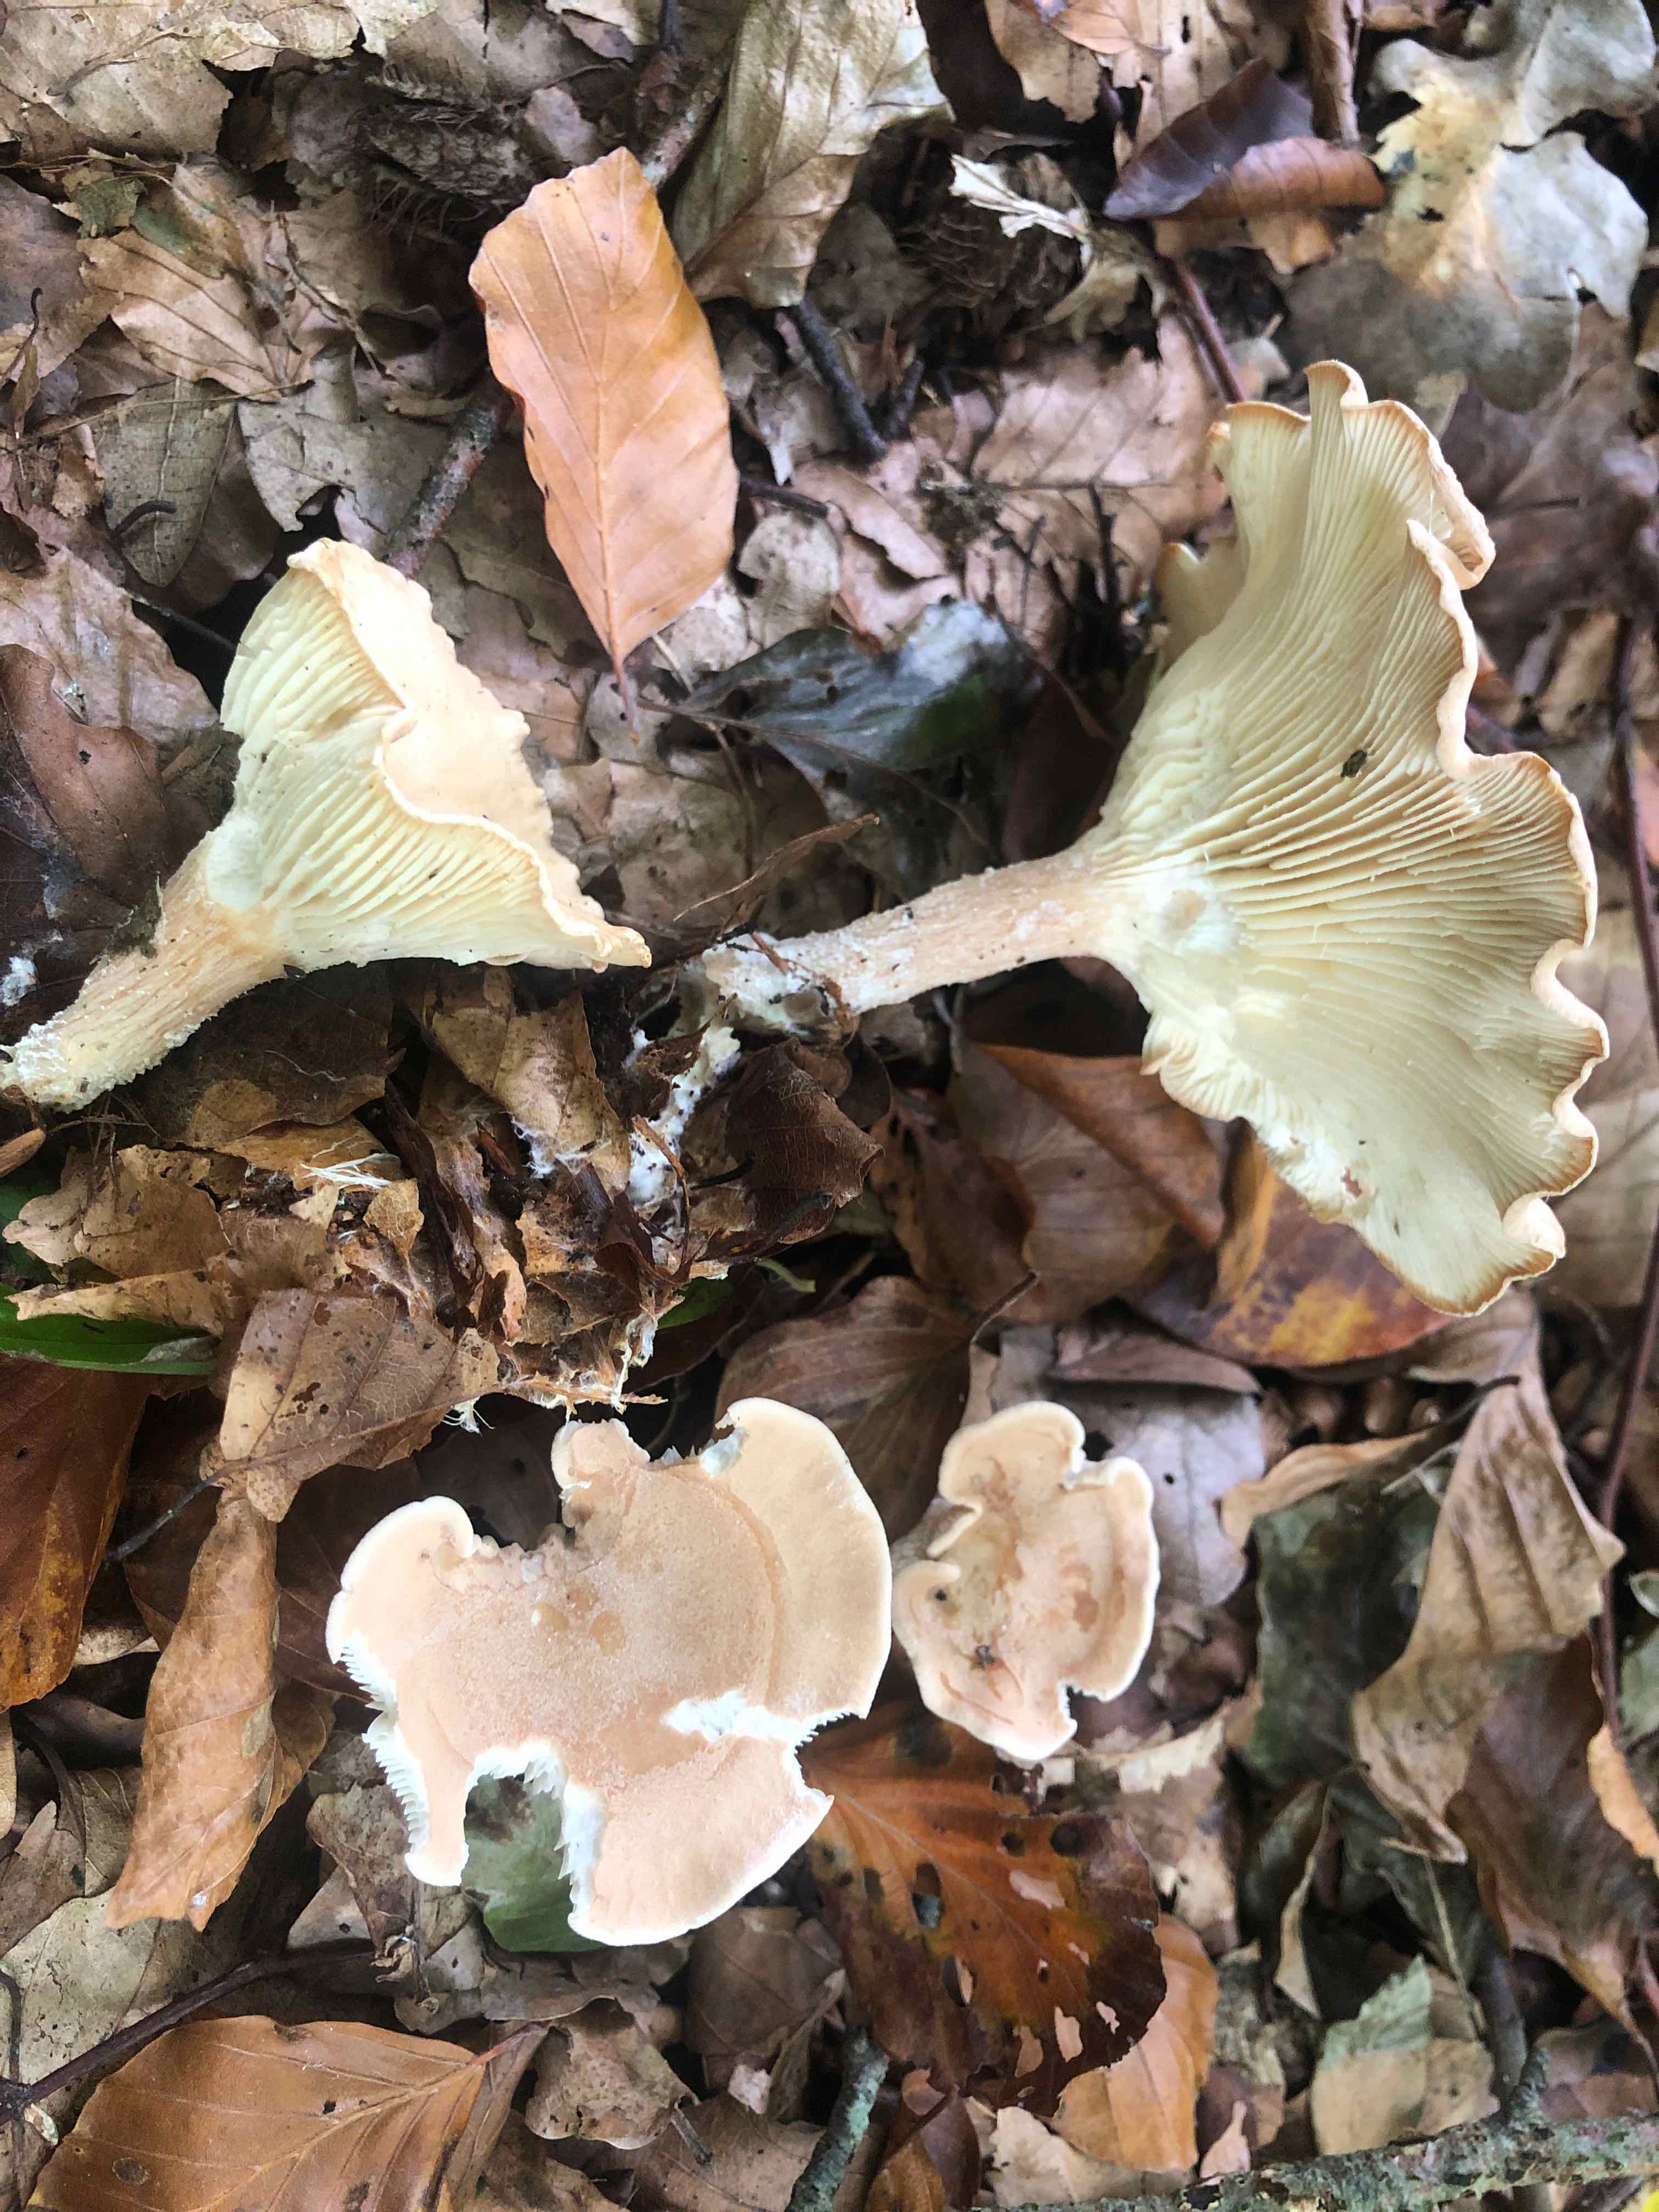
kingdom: Fungi
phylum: Basidiomycota
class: Agaricomycetes
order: Agaricales
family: Tricholomataceae
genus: Infundibulicybe
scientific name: Infundibulicybe gibba
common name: almindelig tragthat
